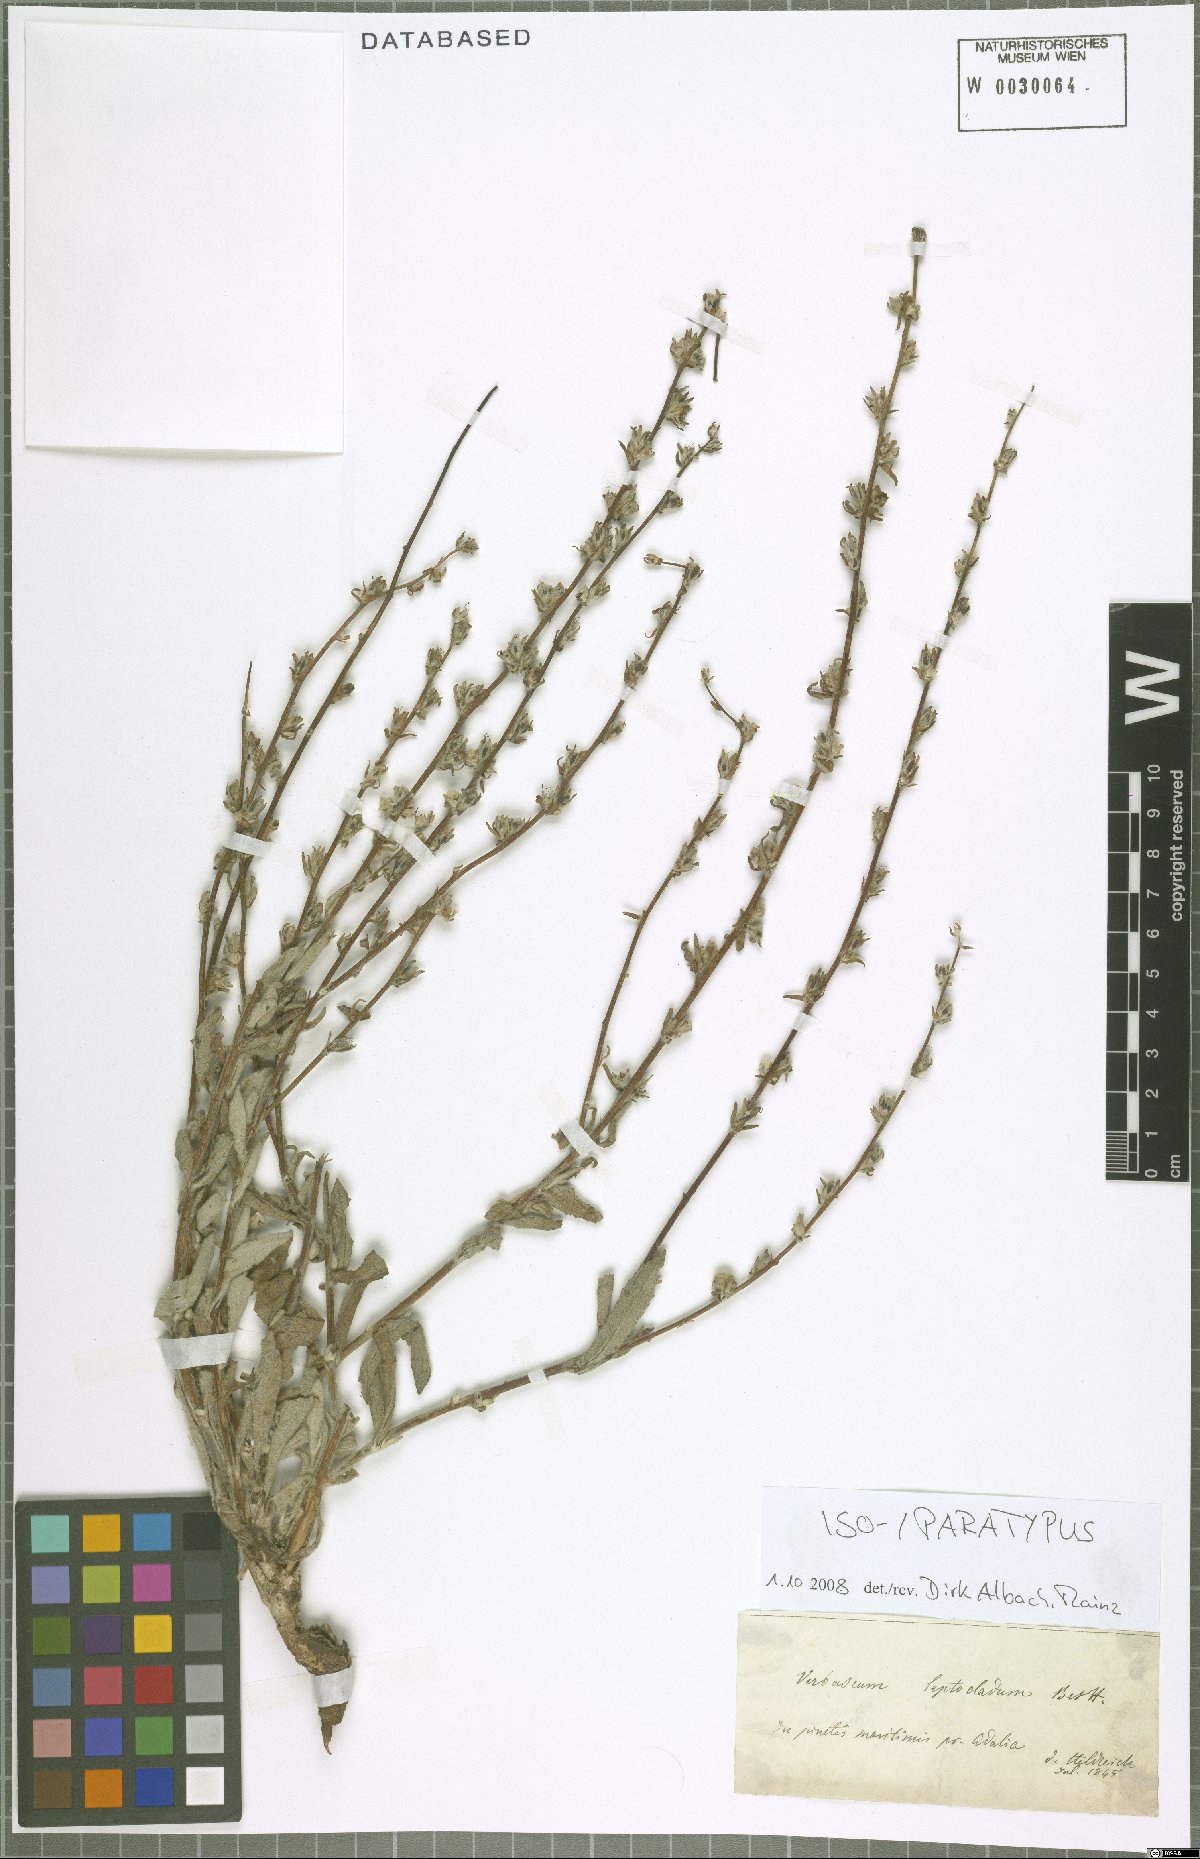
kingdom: Plantae
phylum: Tracheophyta
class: Magnoliopsida
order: Lamiales
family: Scrophulariaceae
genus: Verbascum
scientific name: Verbascum leptocladum
